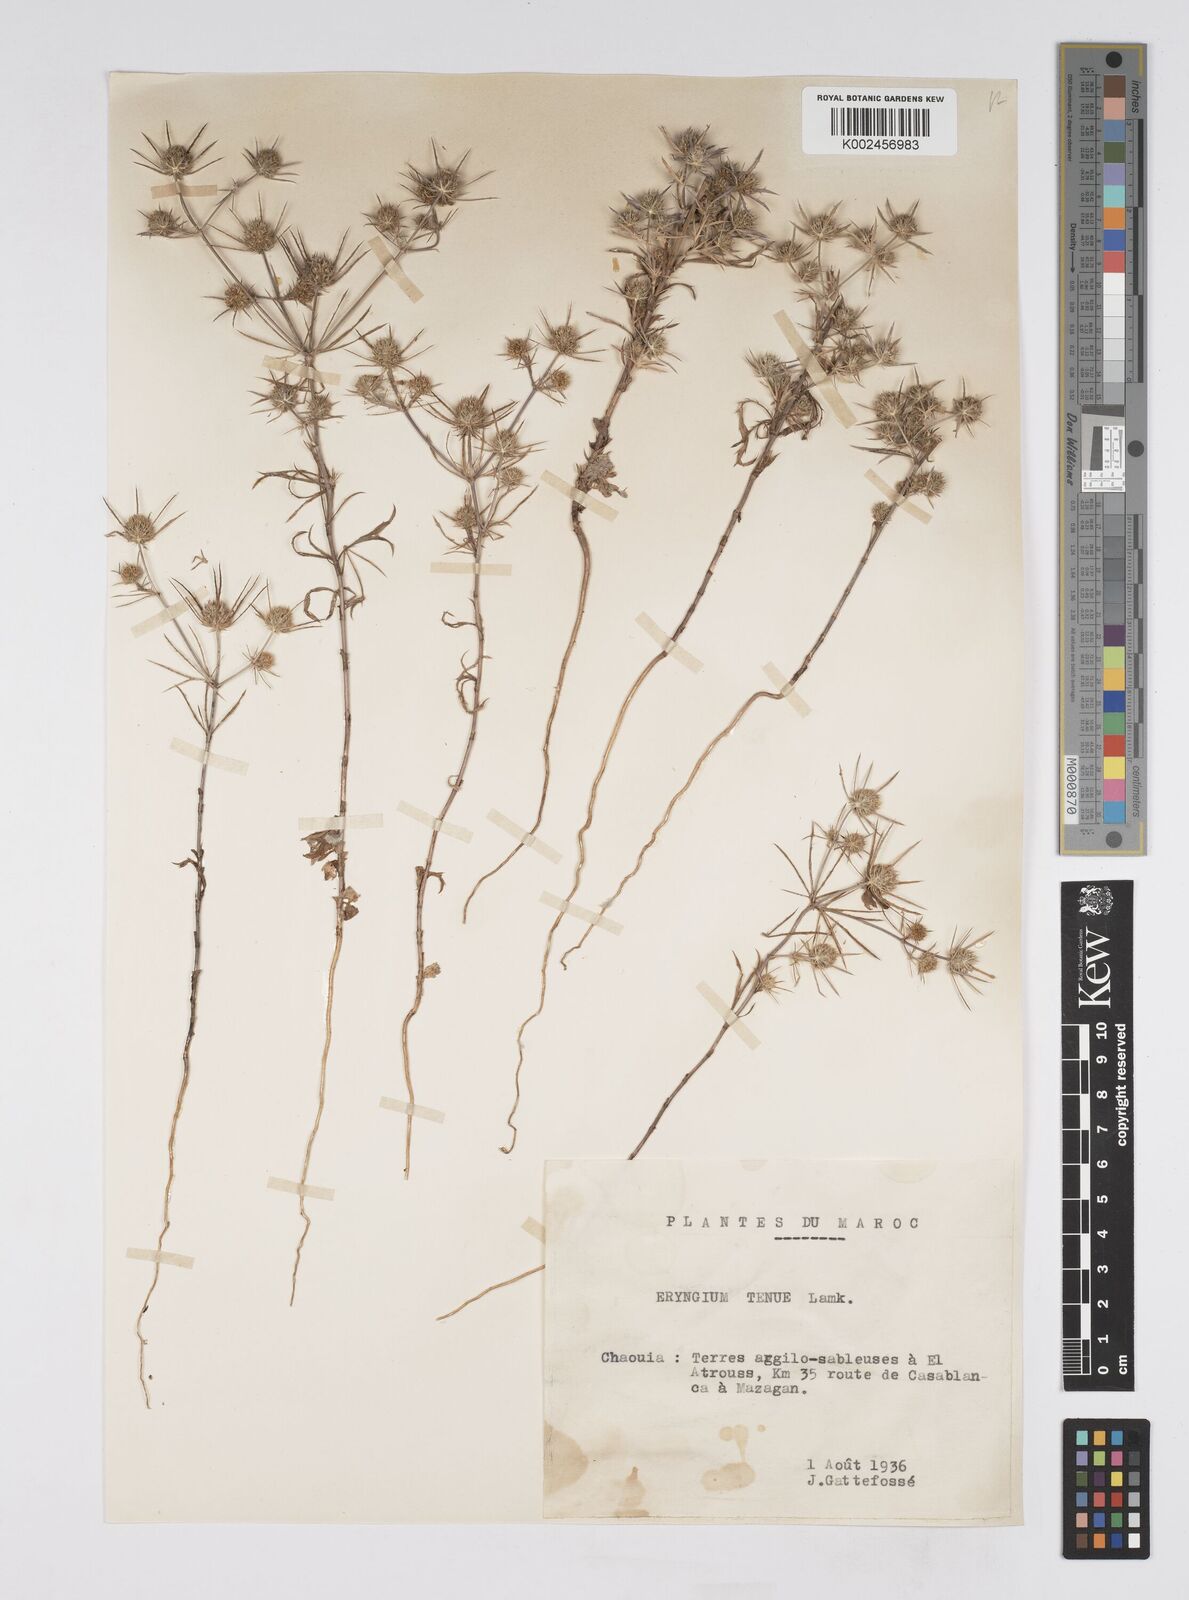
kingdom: Plantae
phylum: Tracheophyta
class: Magnoliopsida
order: Apiales
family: Apiaceae
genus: Eryngium
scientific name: Eryngium
